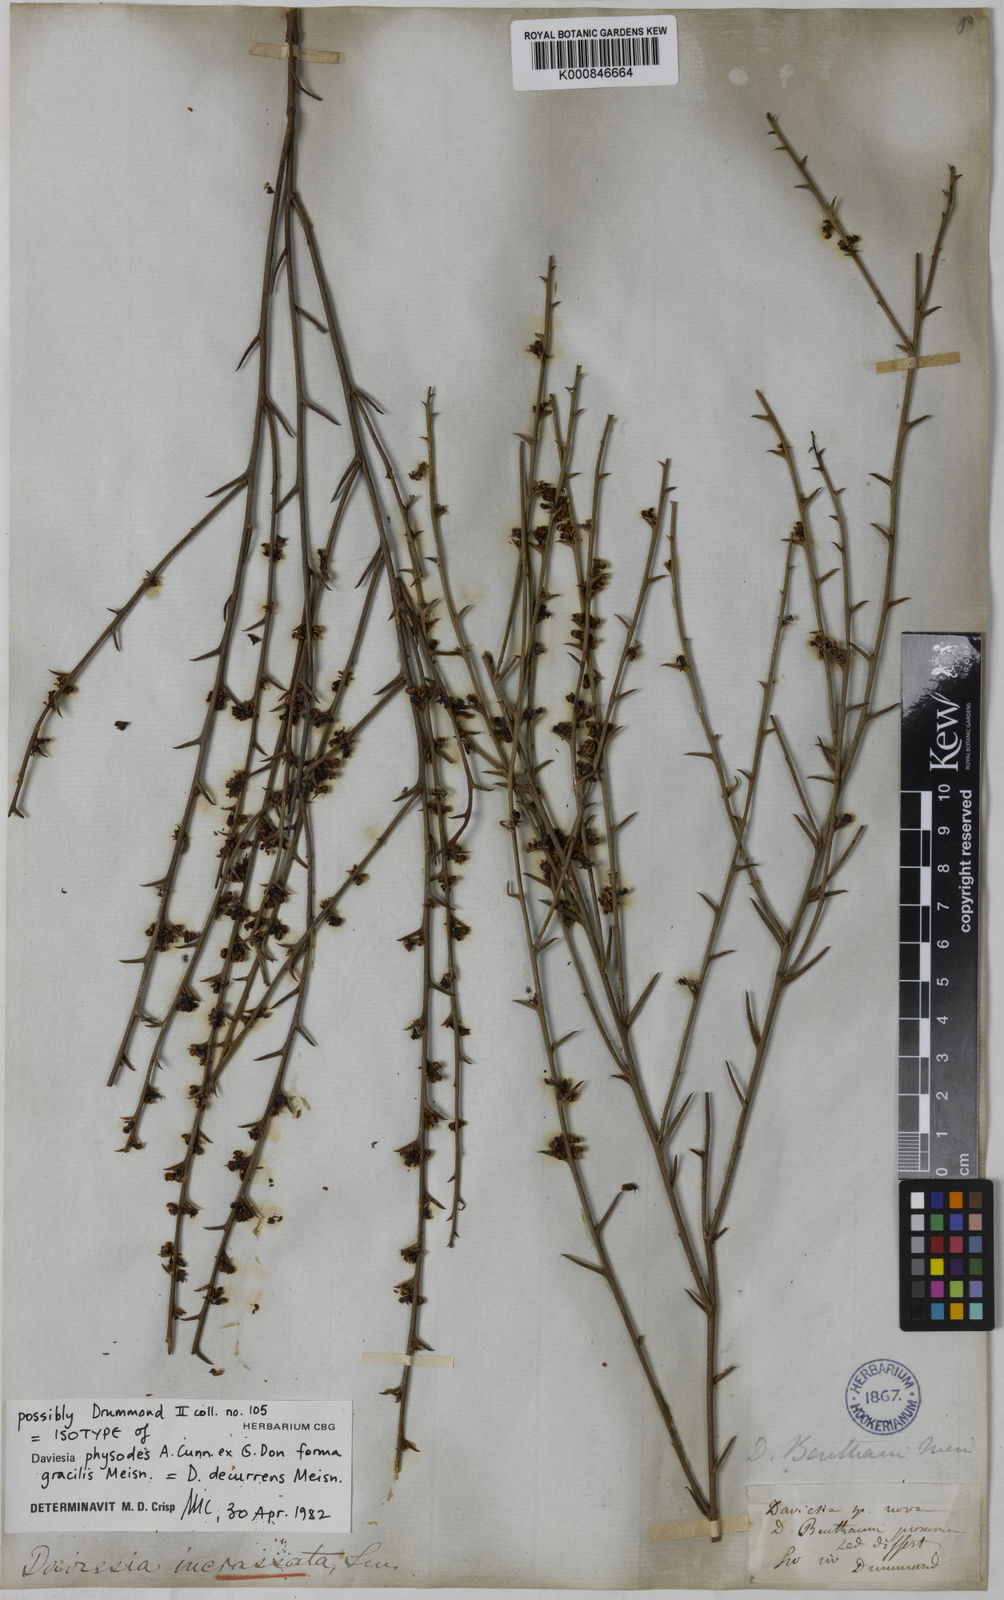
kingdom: Plantae
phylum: Tracheophyta
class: Magnoliopsida
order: Fabales
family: Fabaceae
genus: Daviesia
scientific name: Daviesia decurrens
